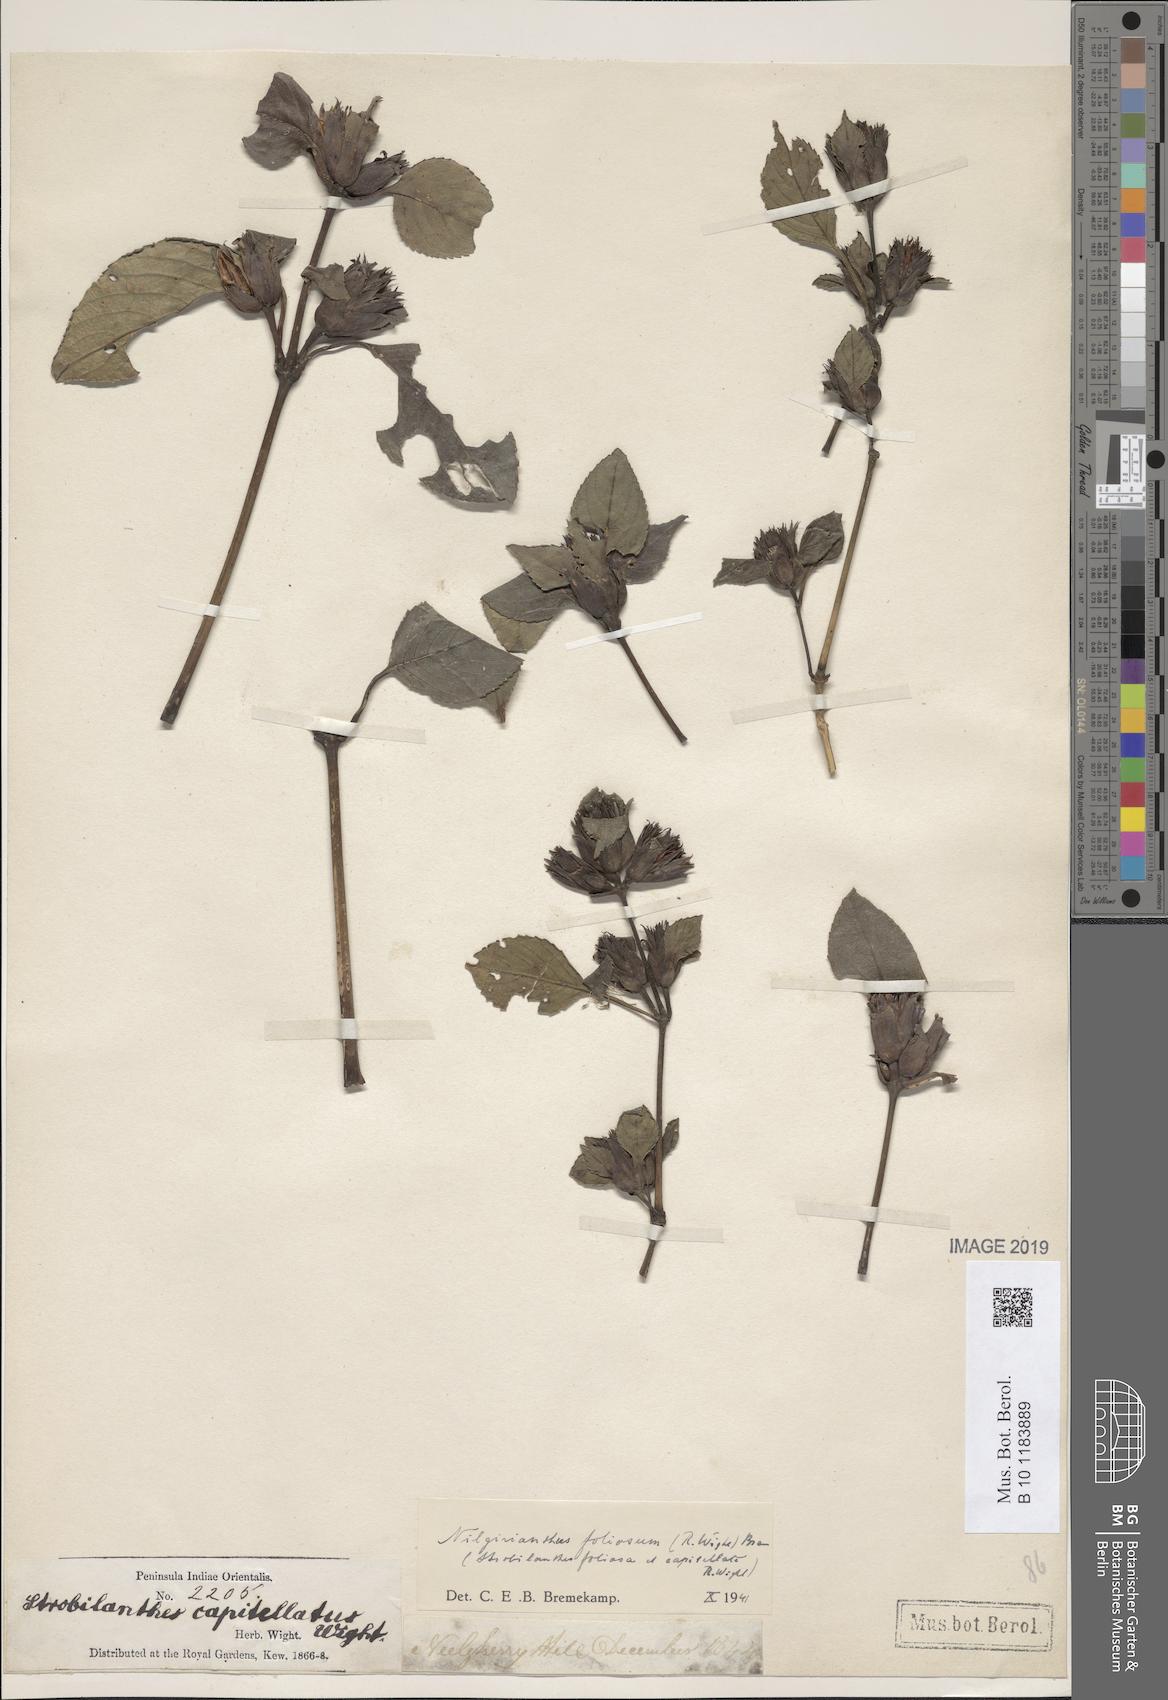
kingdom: Plantae
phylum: Tracheophyta
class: Magnoliopsida
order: Lamiales
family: Acanthaceae
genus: Strobilanthes
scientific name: Strobilanthes foliosa
